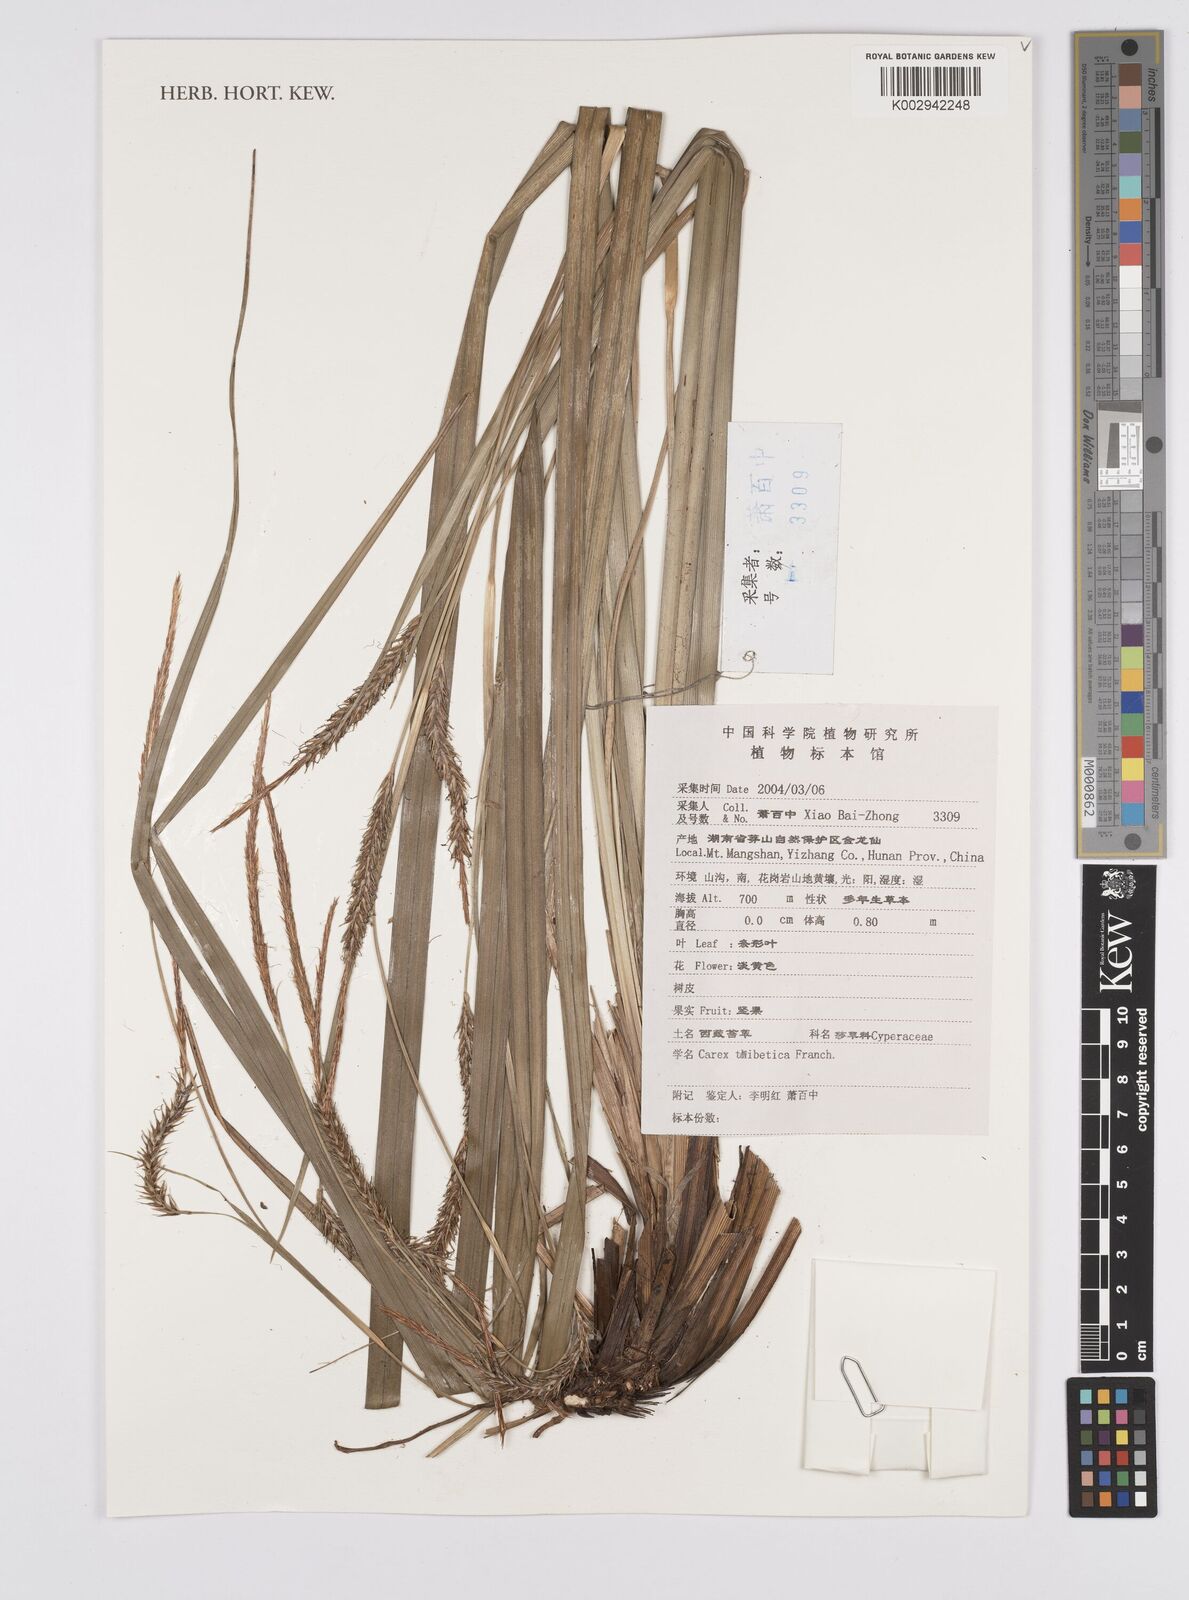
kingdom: Plantae
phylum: Tracheophyta
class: Liliopsida
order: Poales
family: Cyperaceae
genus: Carex
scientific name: Carex thibetica
